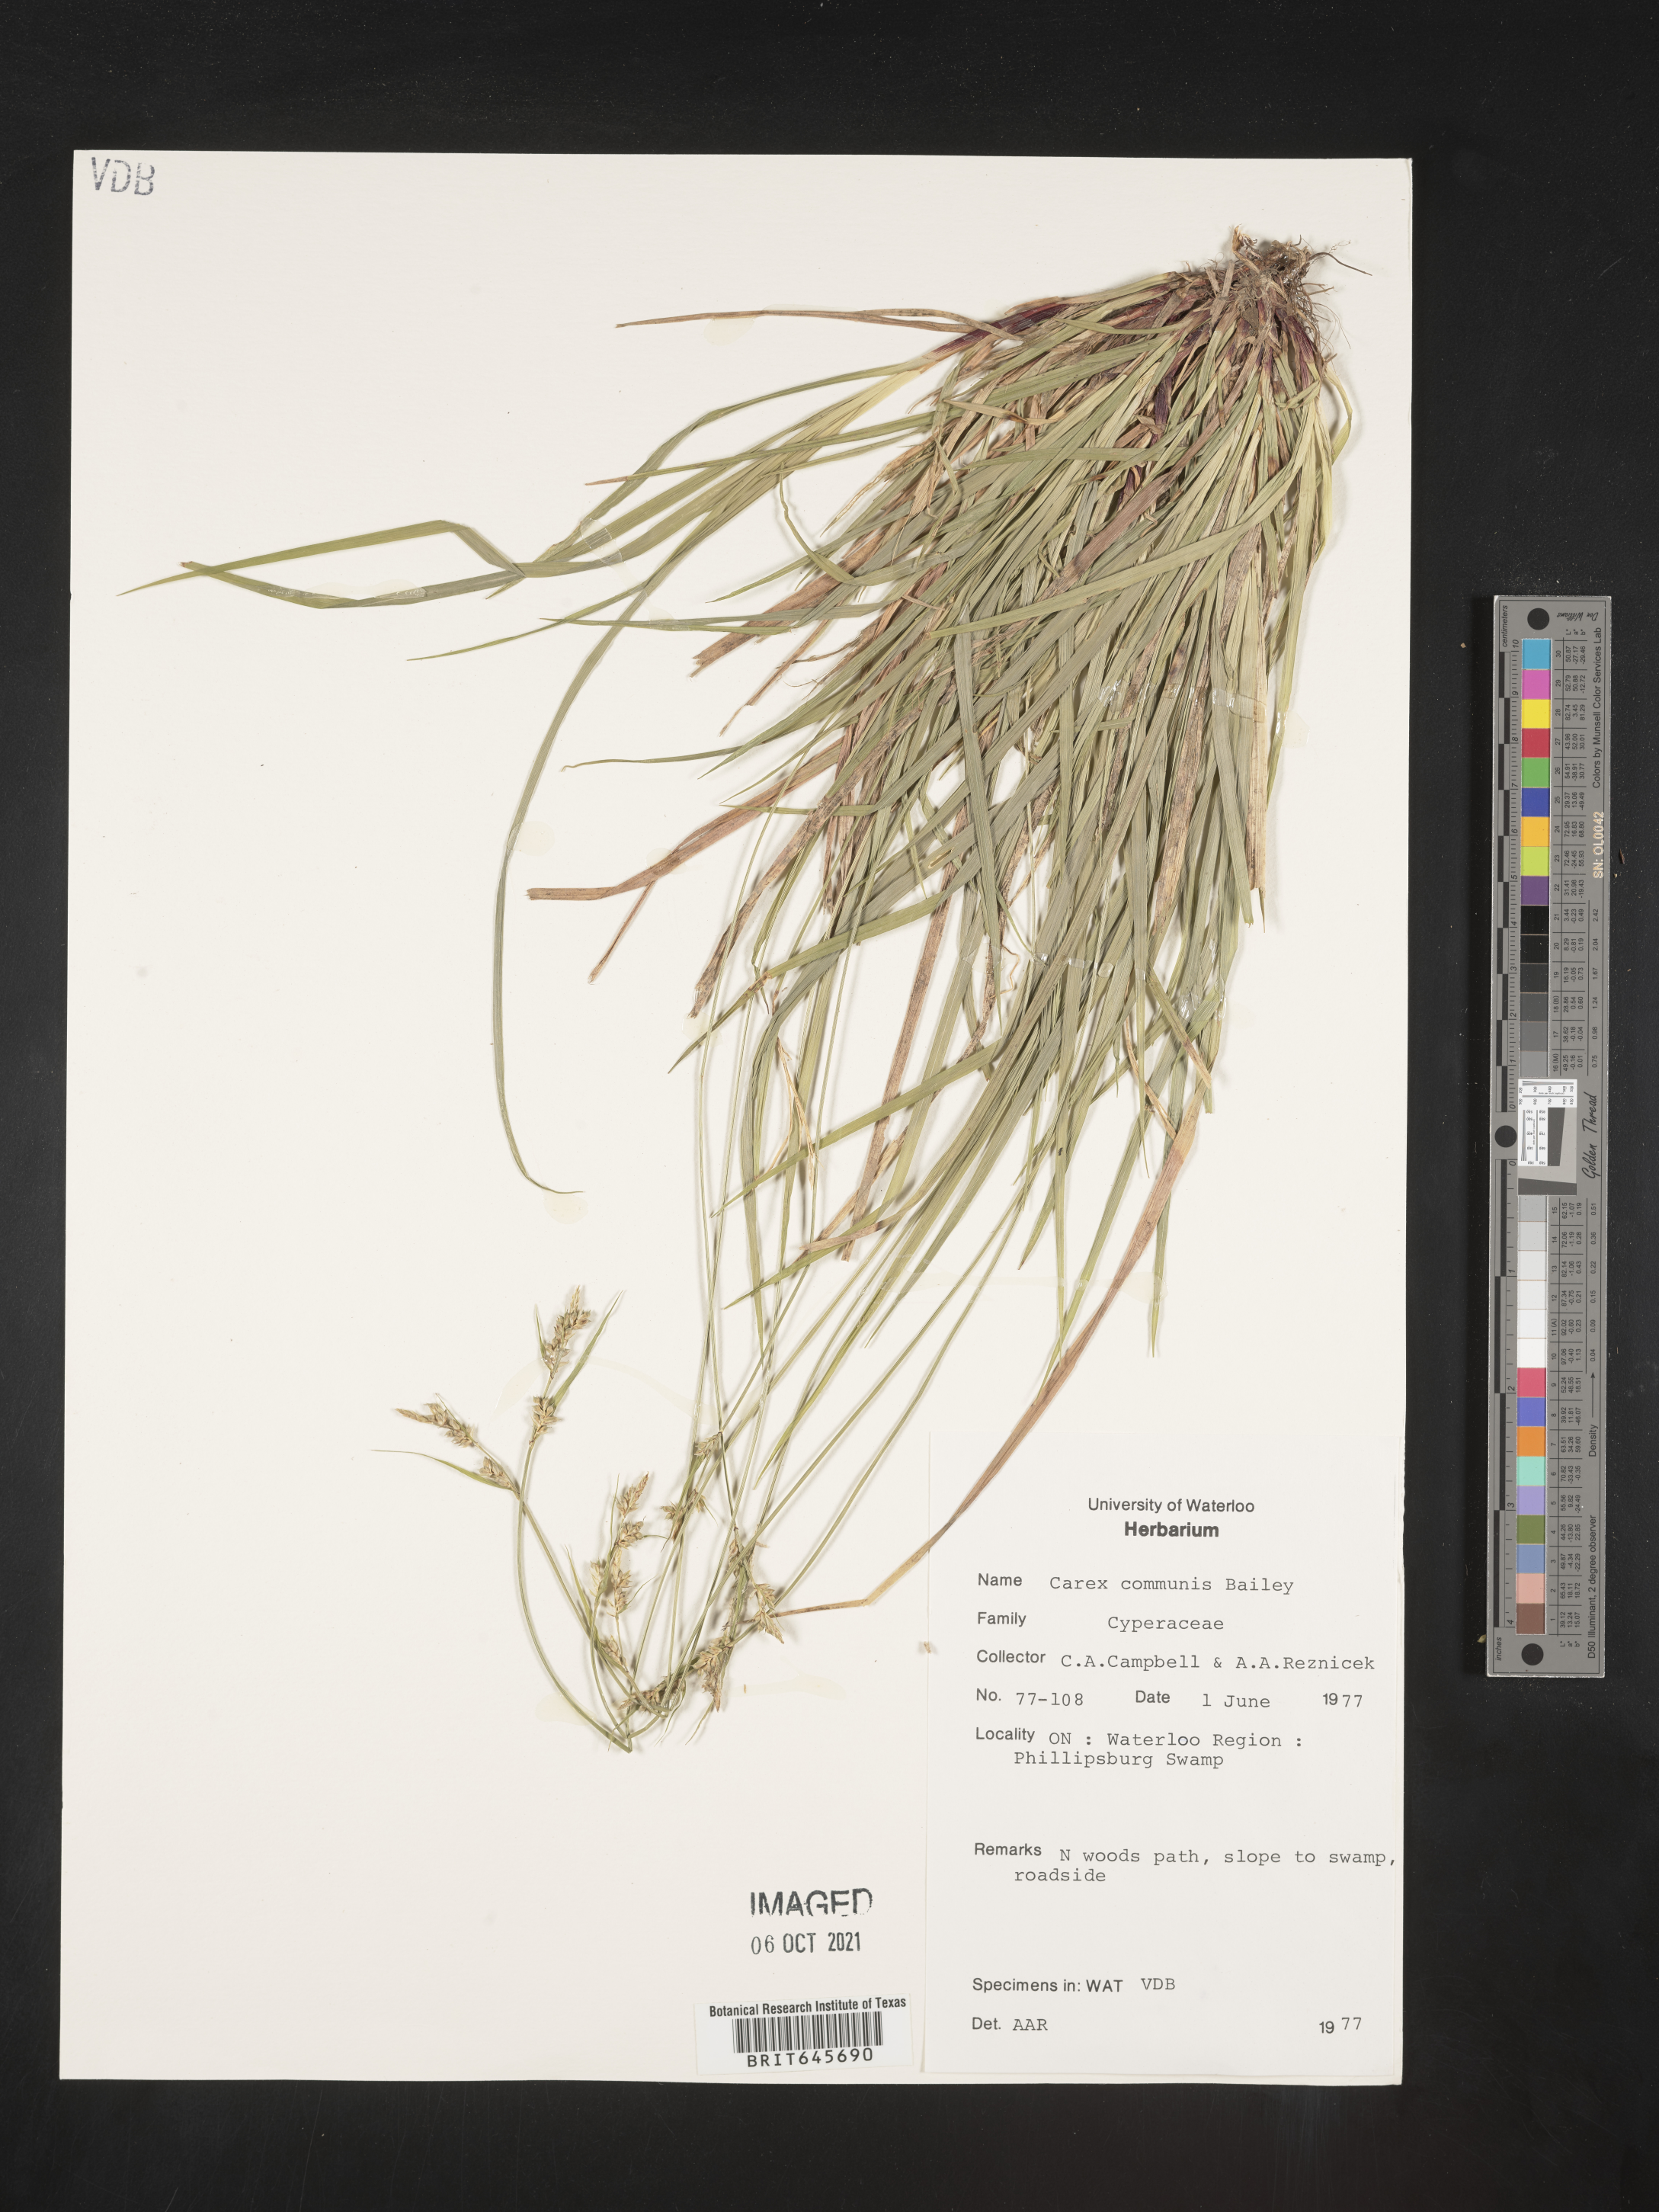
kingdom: Plantae
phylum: Tracheophyta
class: Liliopsida
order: Poales
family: Cyperaceae
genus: Carex
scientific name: Carex communis
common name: Colonial oak sedge
